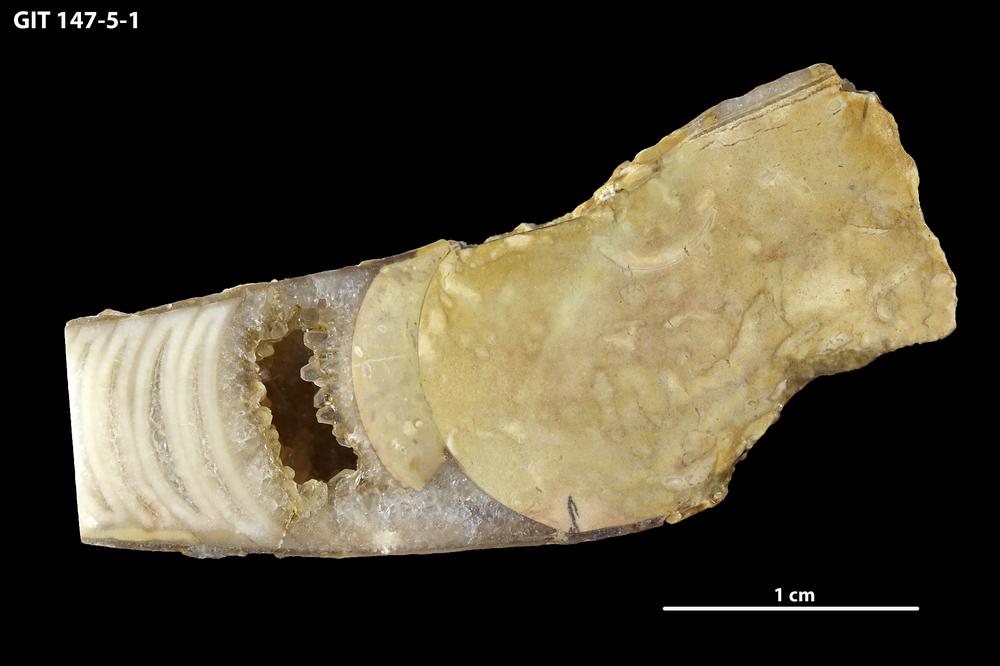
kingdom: Animalia
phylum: Mollusca
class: Cephalopoda
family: Oncoceratidae
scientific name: Oncoceratidae
